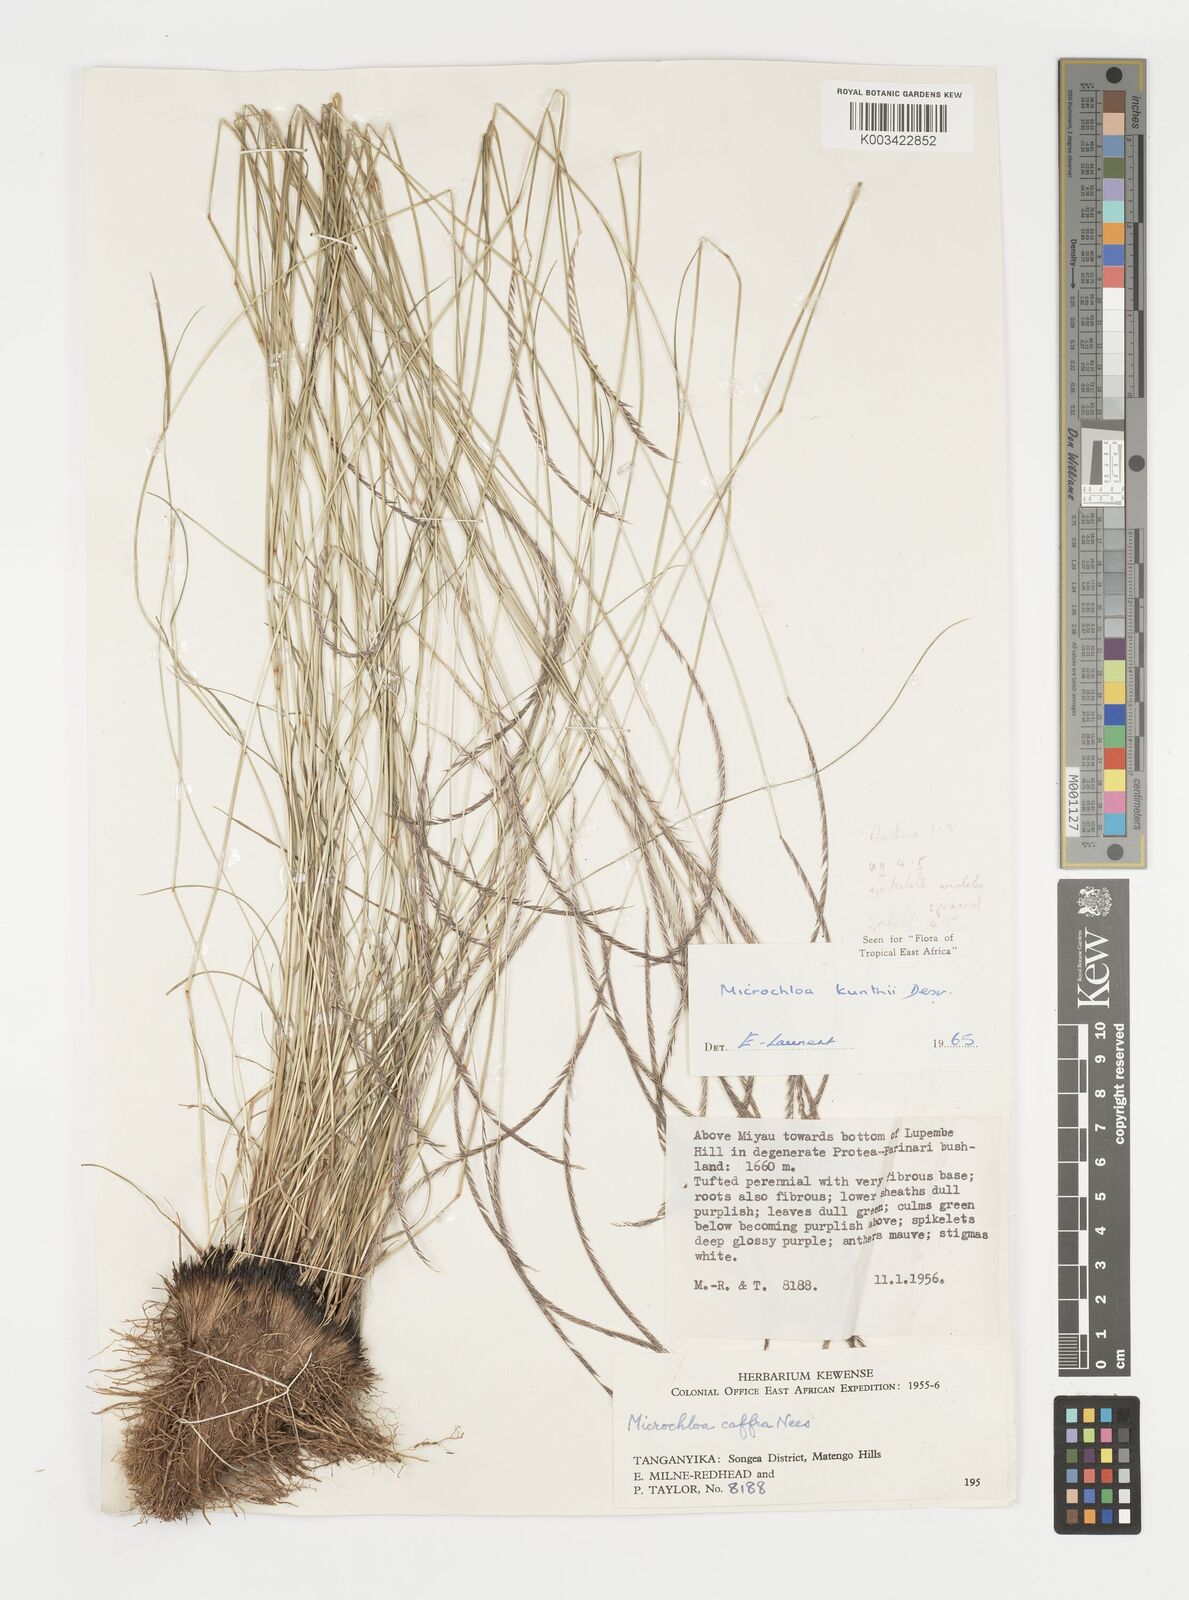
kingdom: Plantae
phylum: Tracheophyta
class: Liliopsida
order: Poales
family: Poaceae
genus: Microchloa
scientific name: Microchloa kunthii
